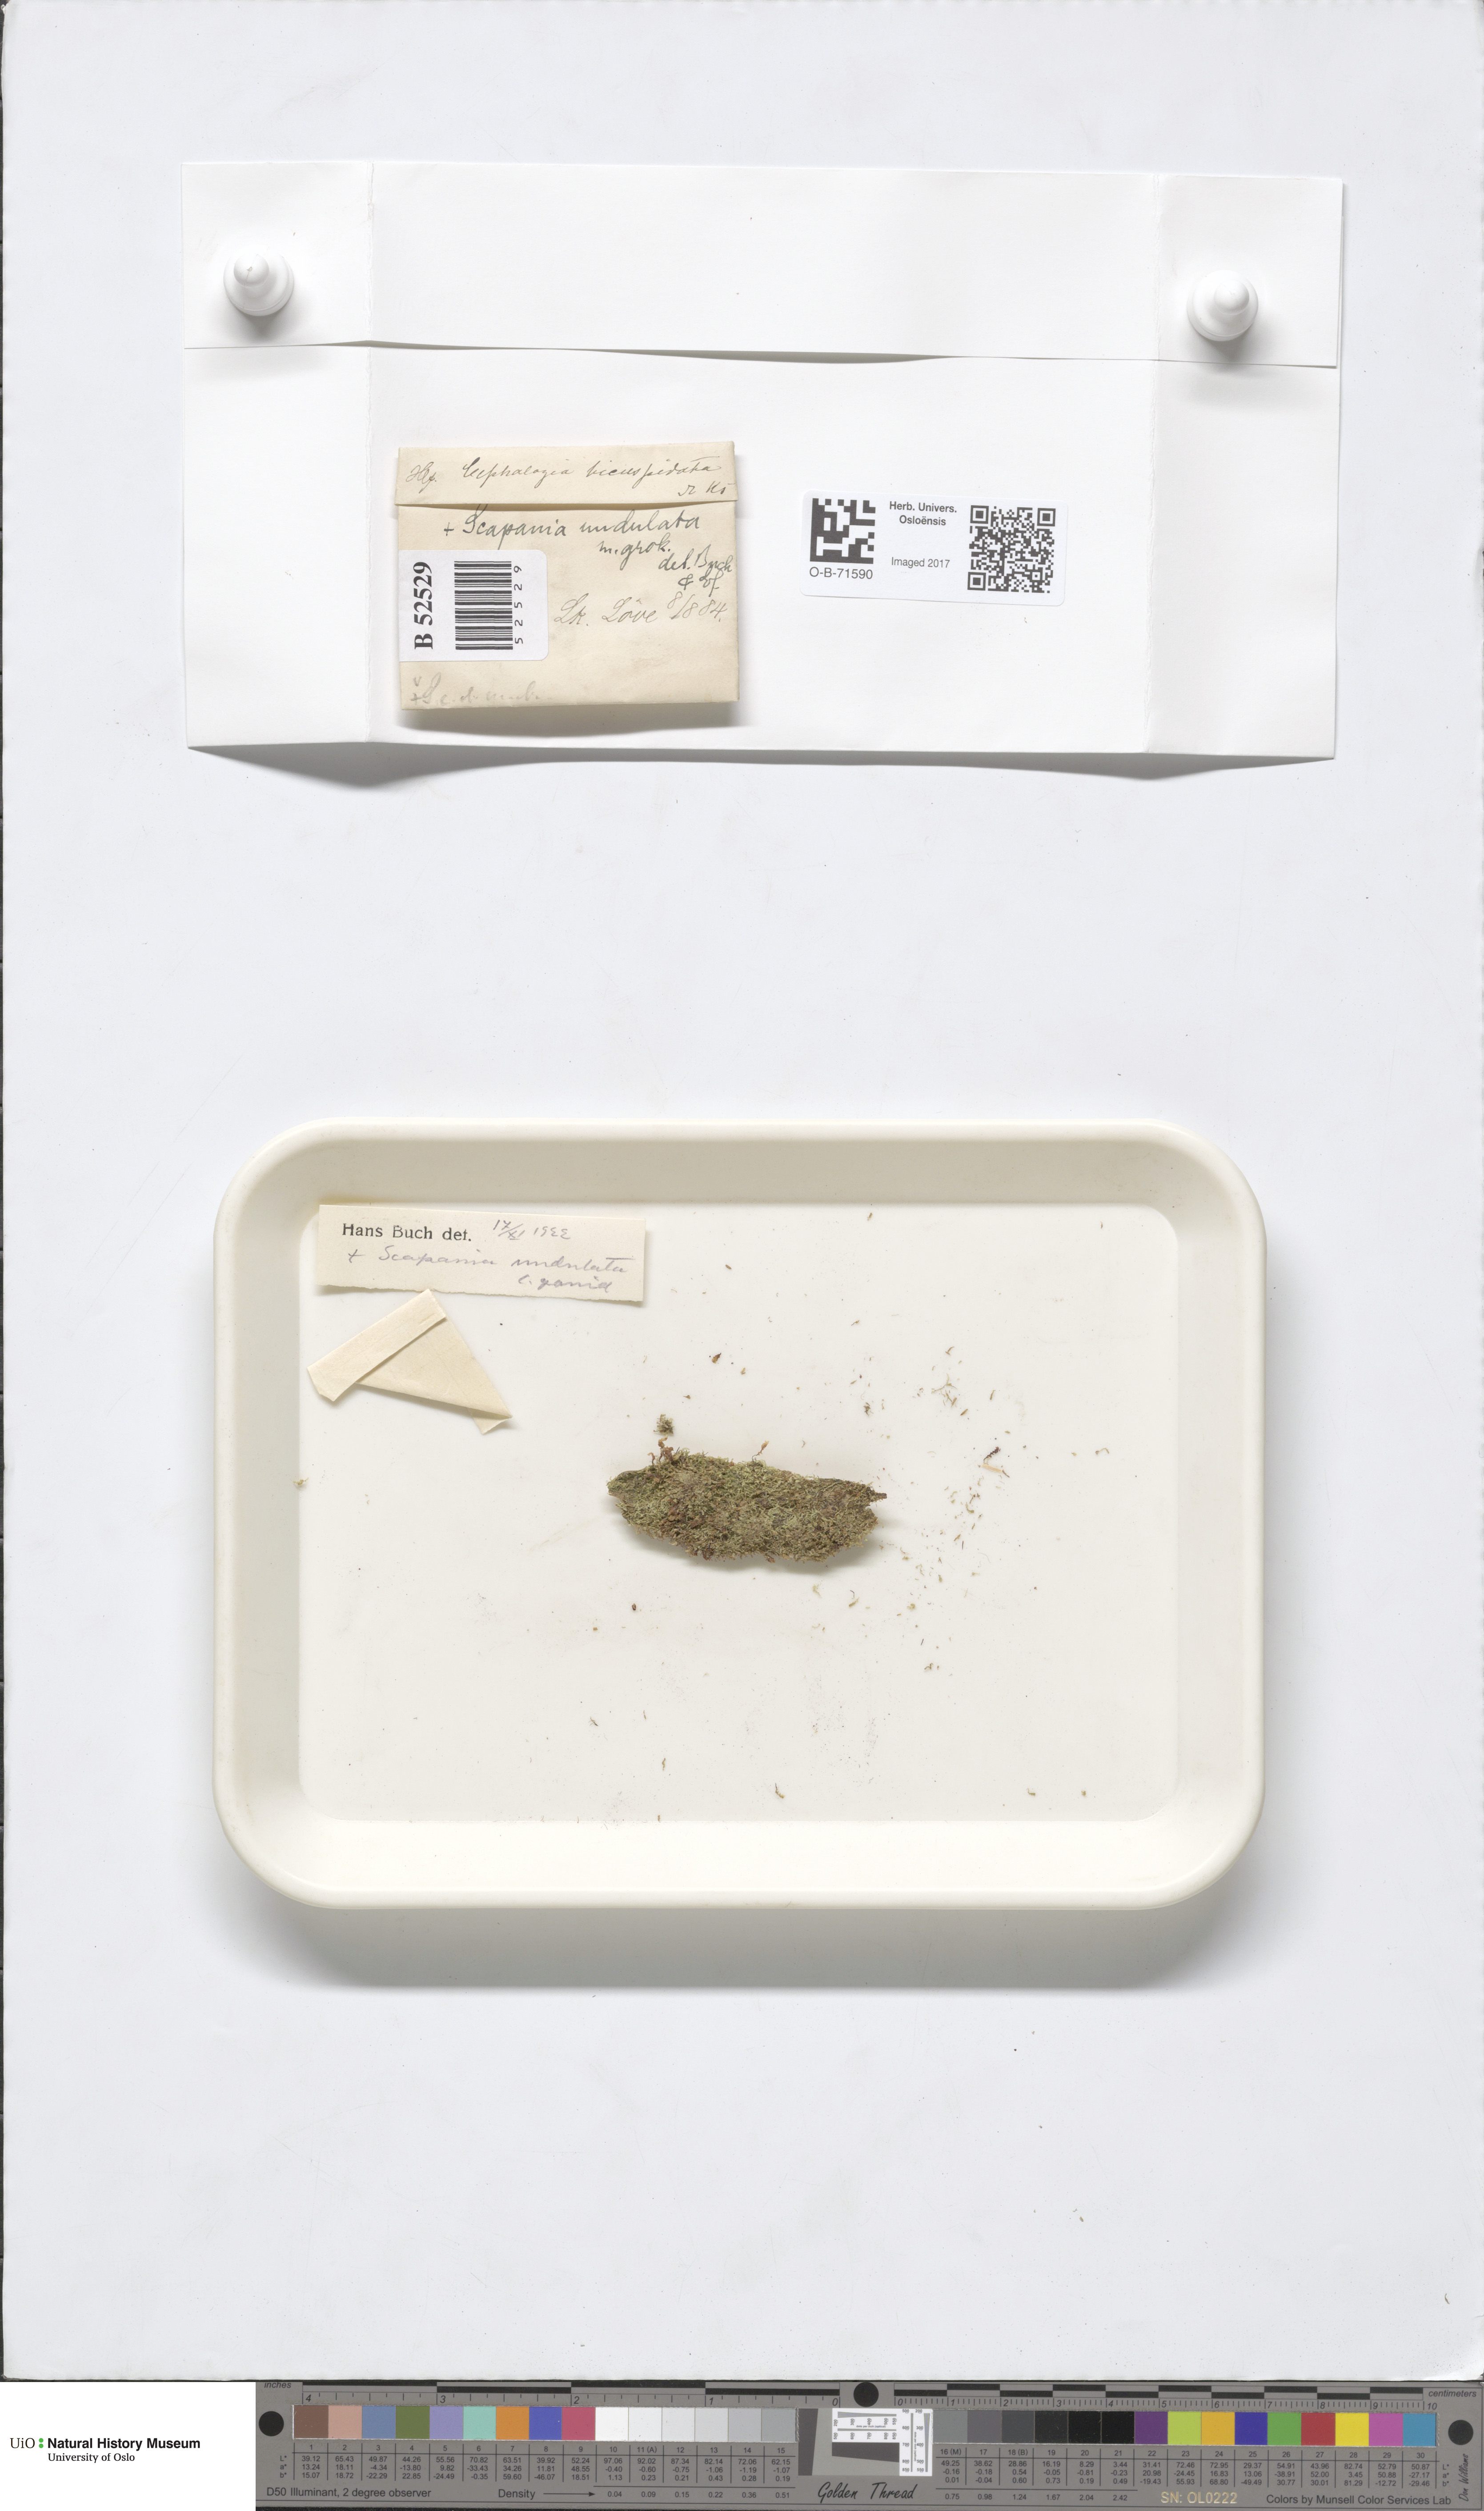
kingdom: Plantae
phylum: Marchantiophyta
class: Jungermanniopsida
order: Jungermanniales
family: Cephaloziaceae
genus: Cephalozia
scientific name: Cephalozia bicuspidata
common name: Two-horned pincerwort
